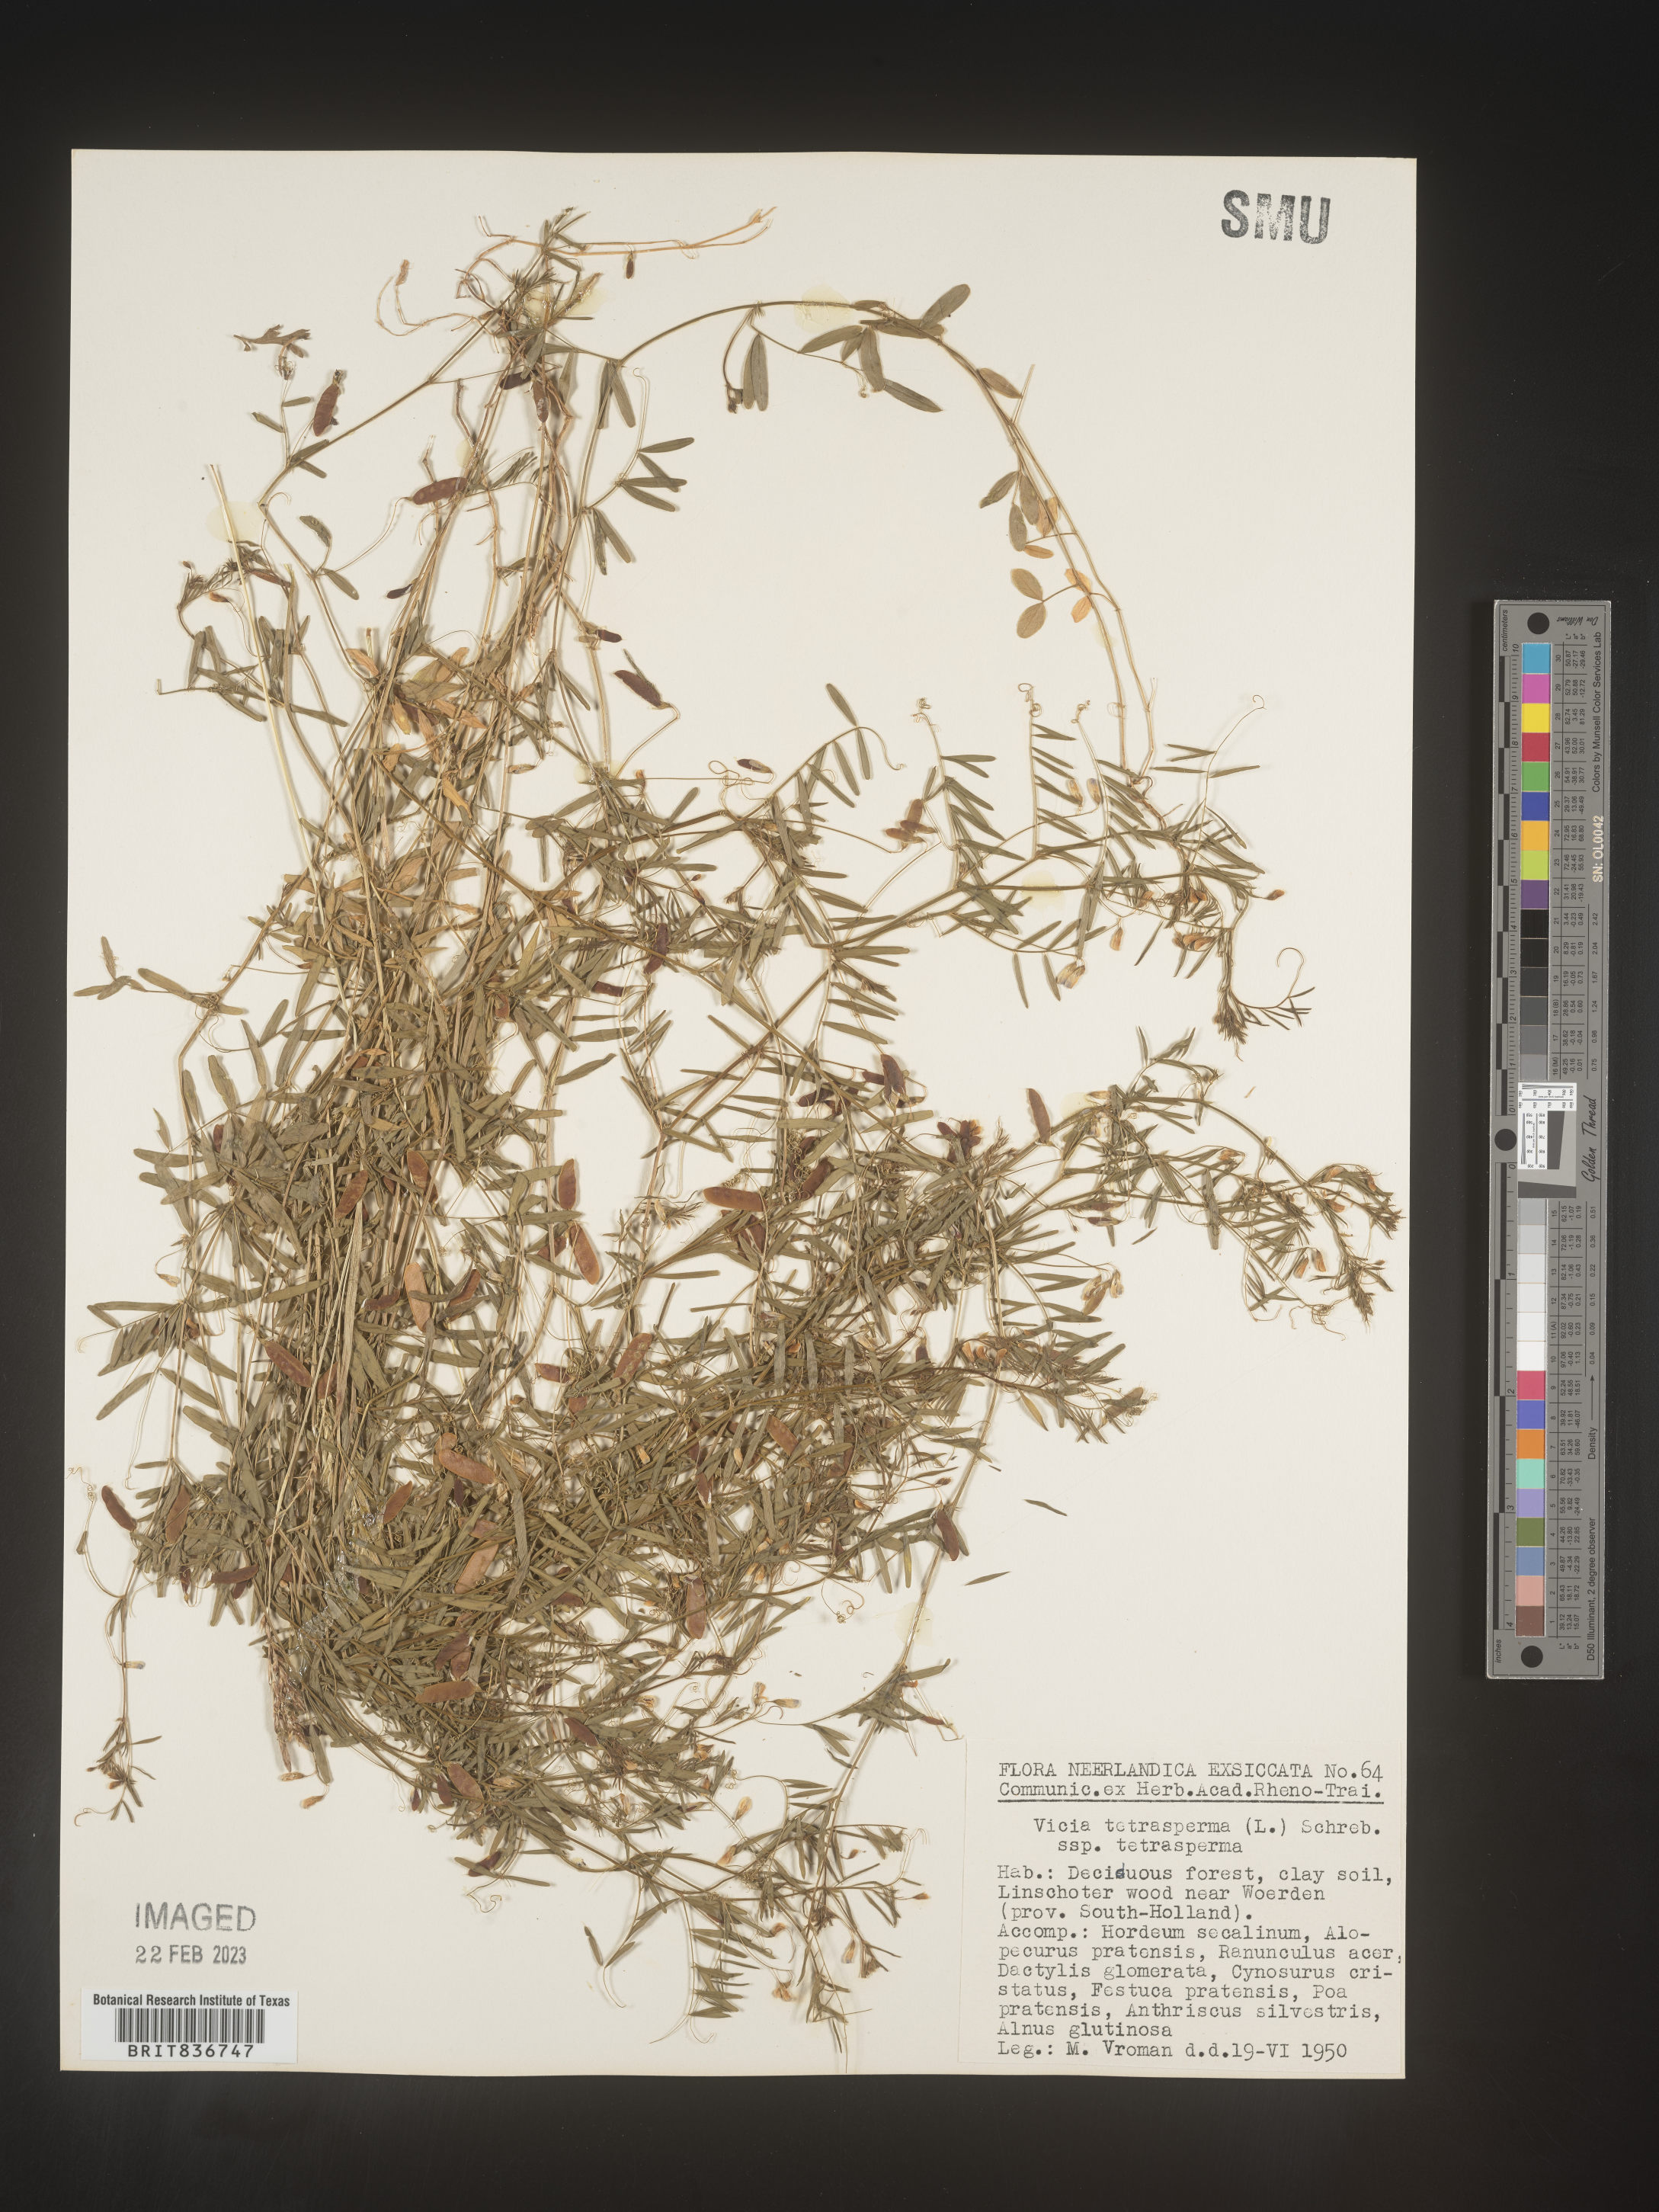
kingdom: Plantae
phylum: Tracheophyta
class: Magnoliopsida
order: Fabales
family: Fabaceae
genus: Vicia
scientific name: Vicia
